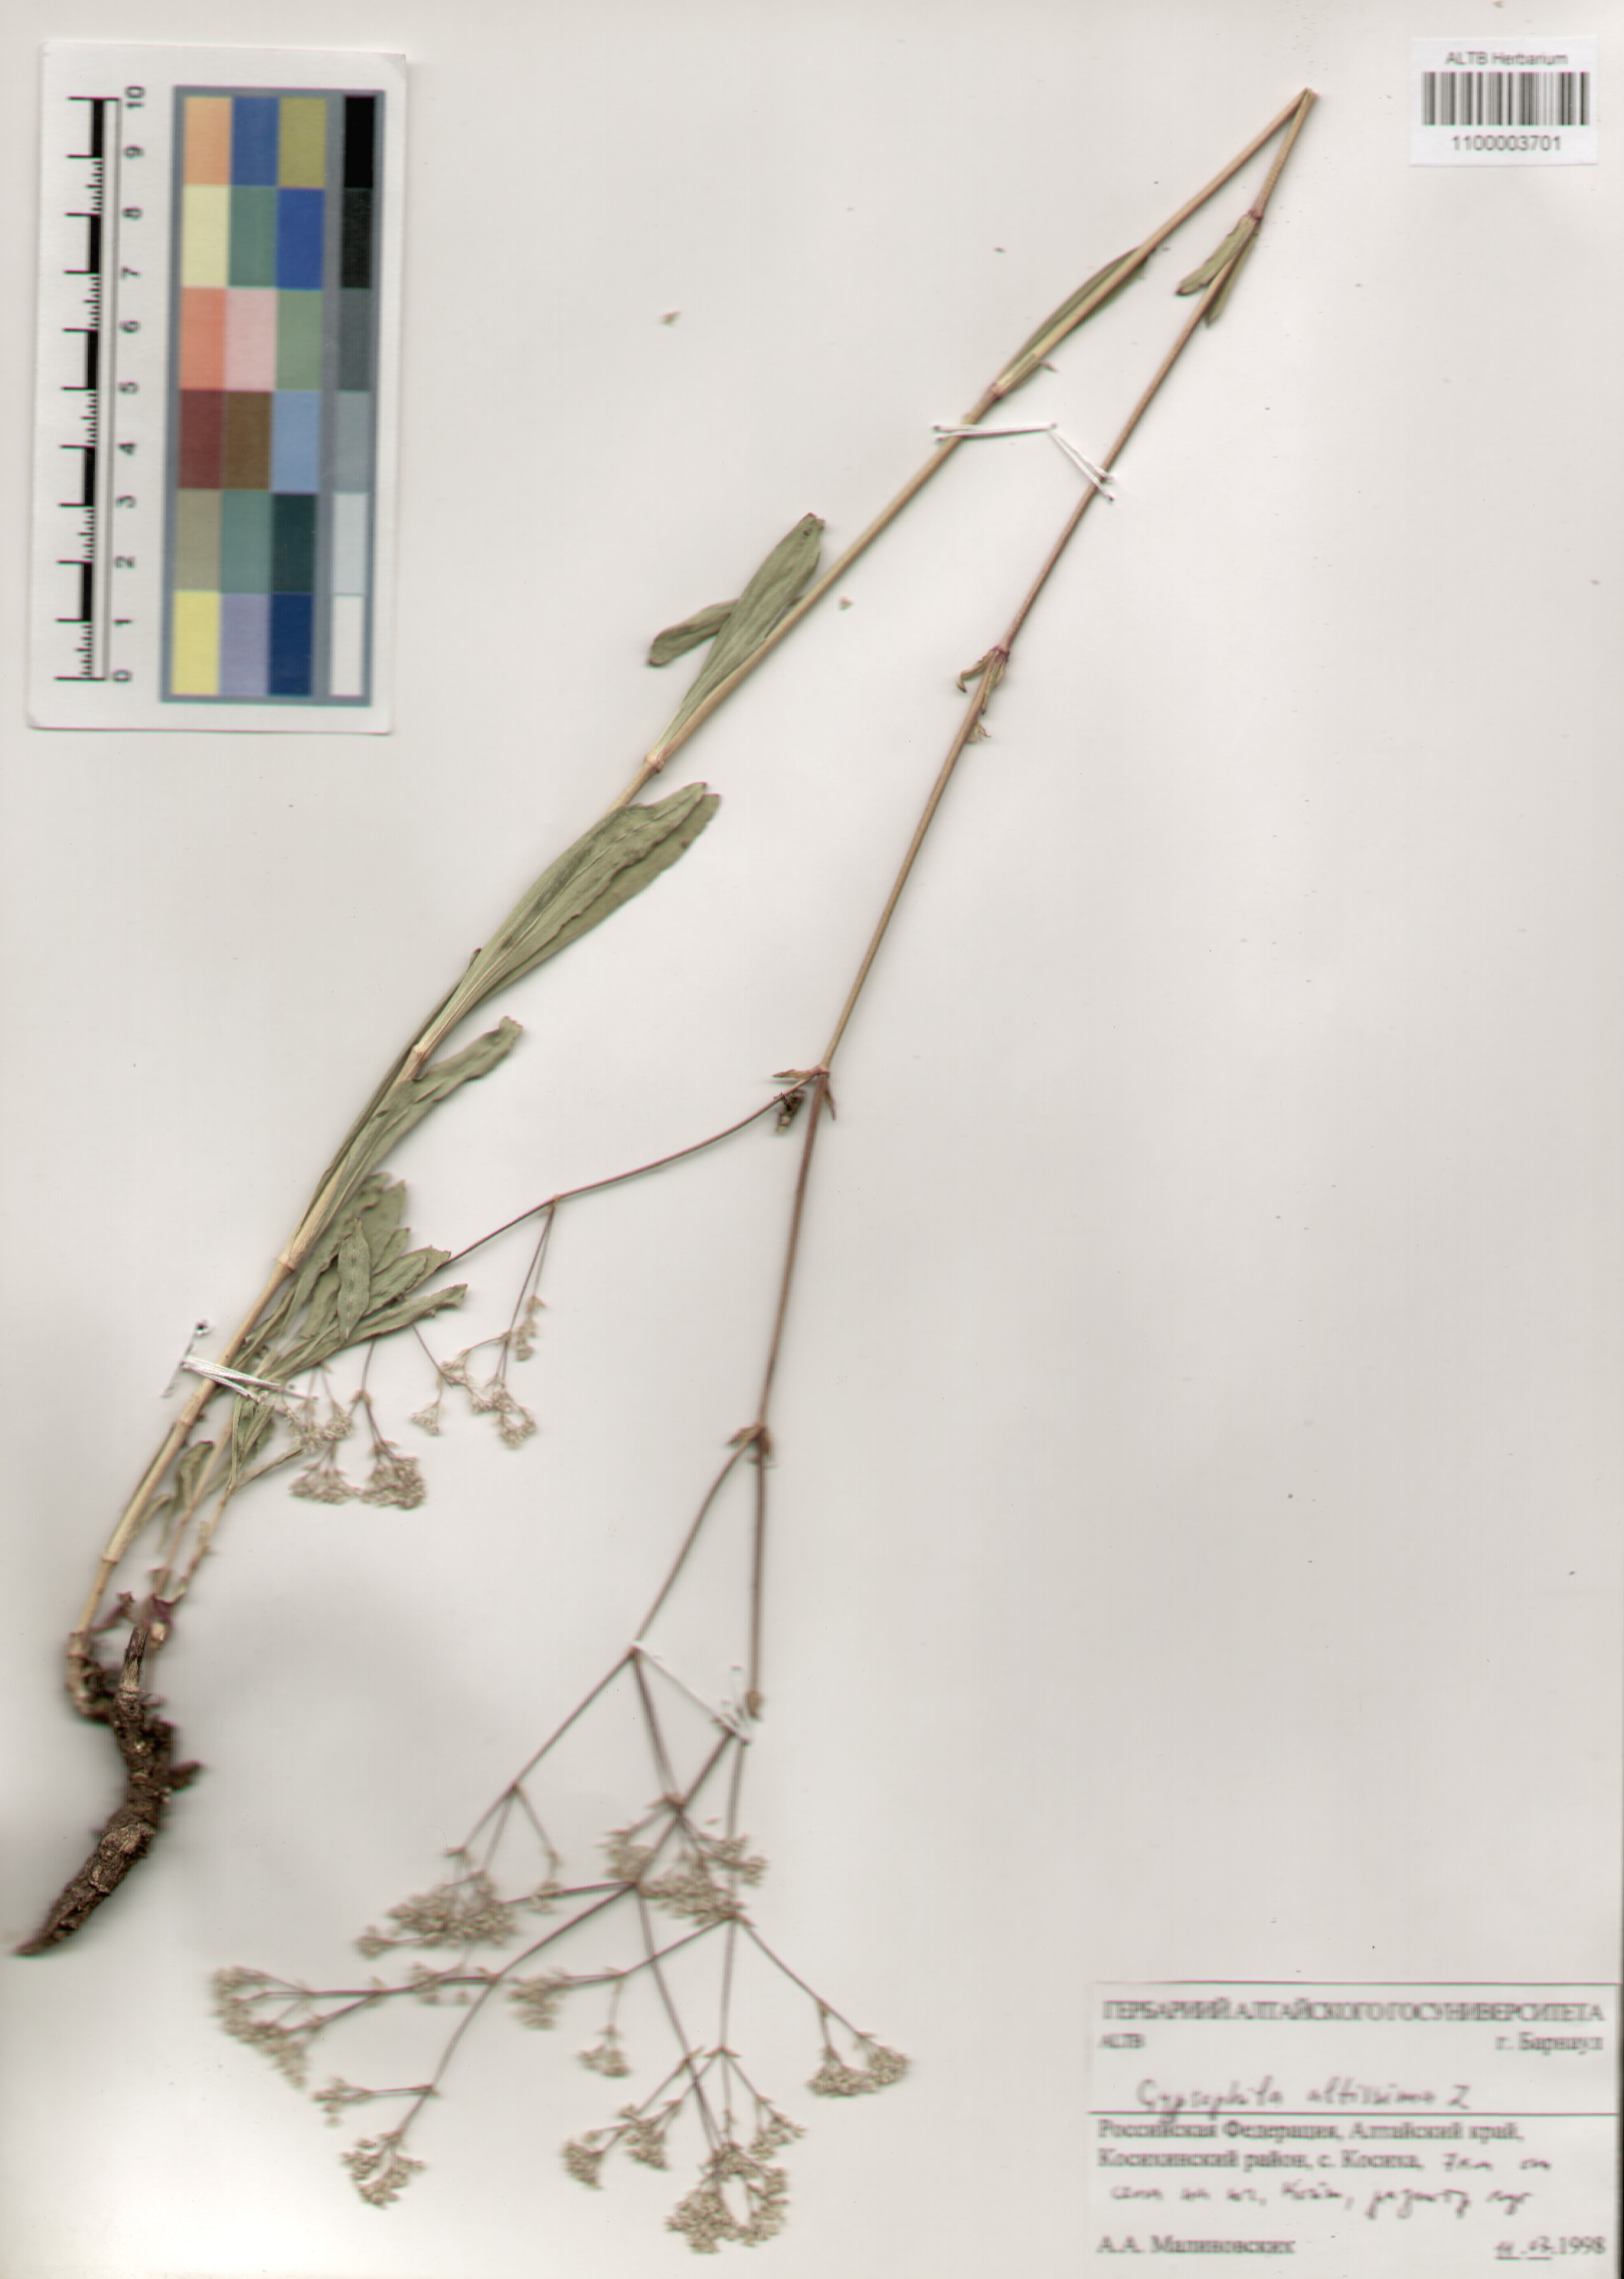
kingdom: Plantae
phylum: Tracheophyta
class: Magnoliopsida
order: Caryophyllales
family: Caryophyllaceae
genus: Gypsophila
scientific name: Gypsophila altissima
